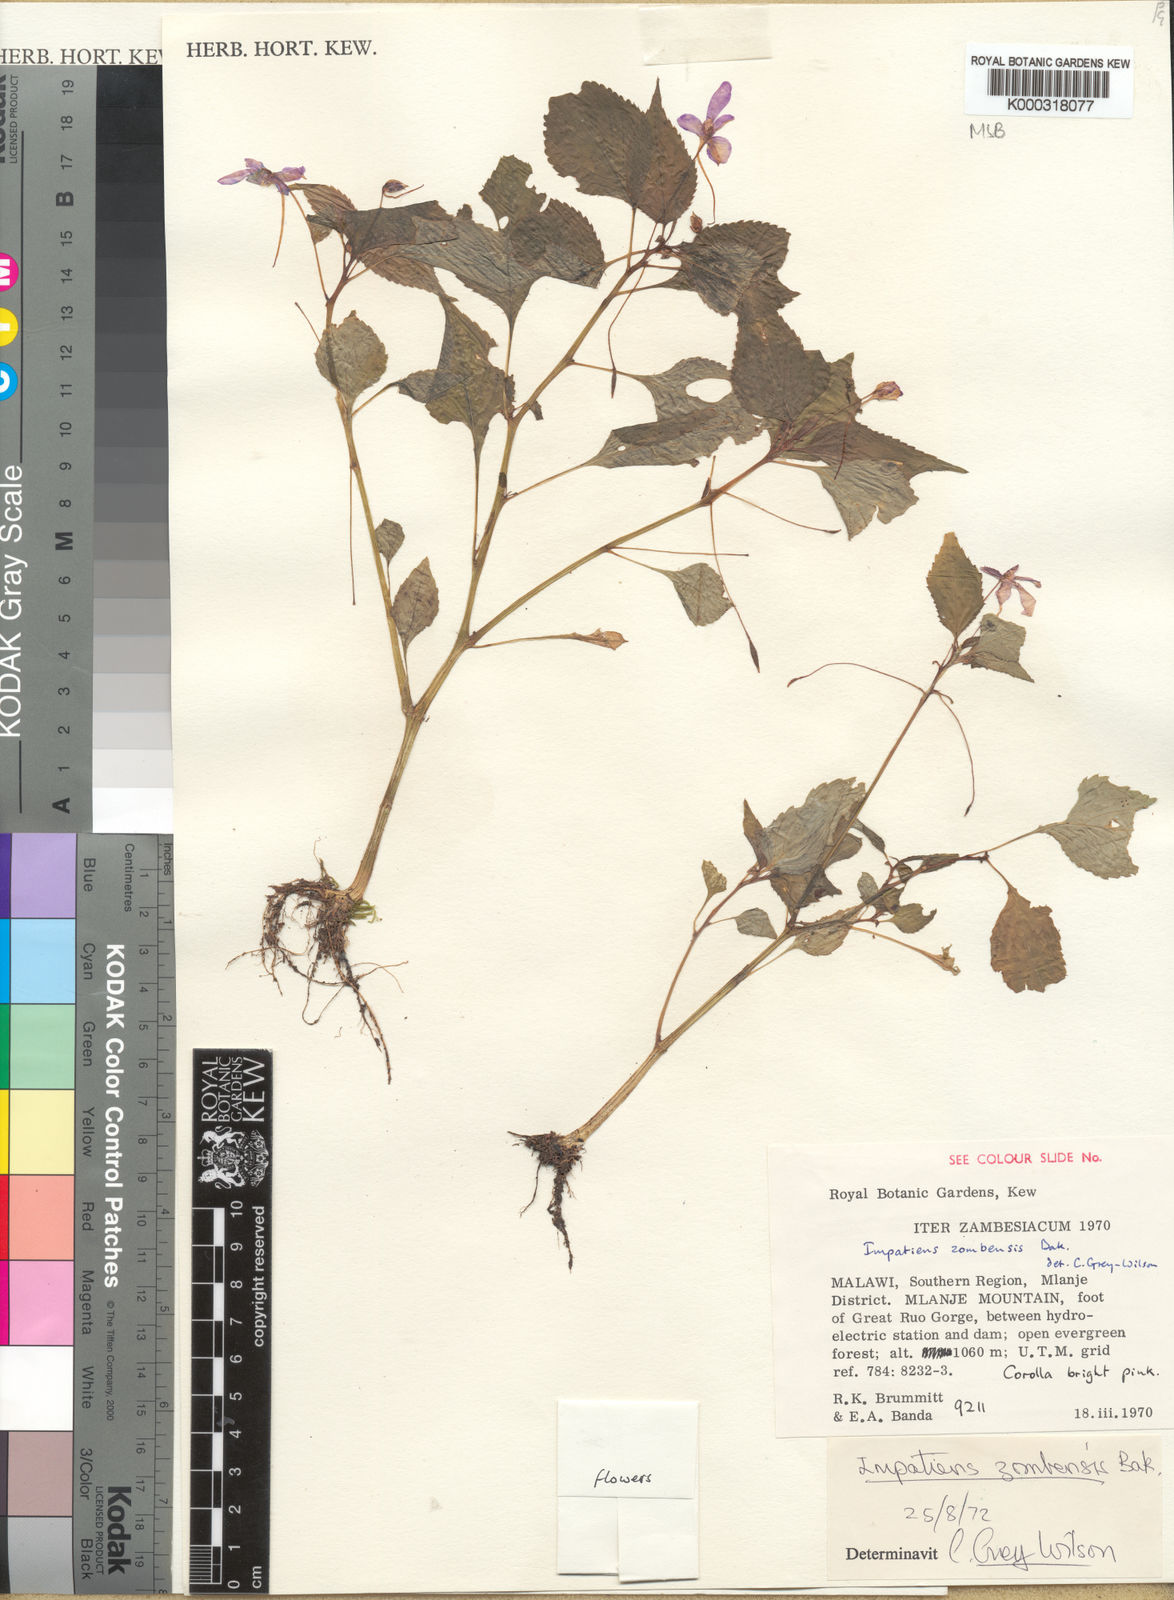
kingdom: Plantae
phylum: Tracheophyta
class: Magnoliopsida
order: Ericales
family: Balsaminaceae
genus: Impatiens
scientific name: Impatiens zombensis
